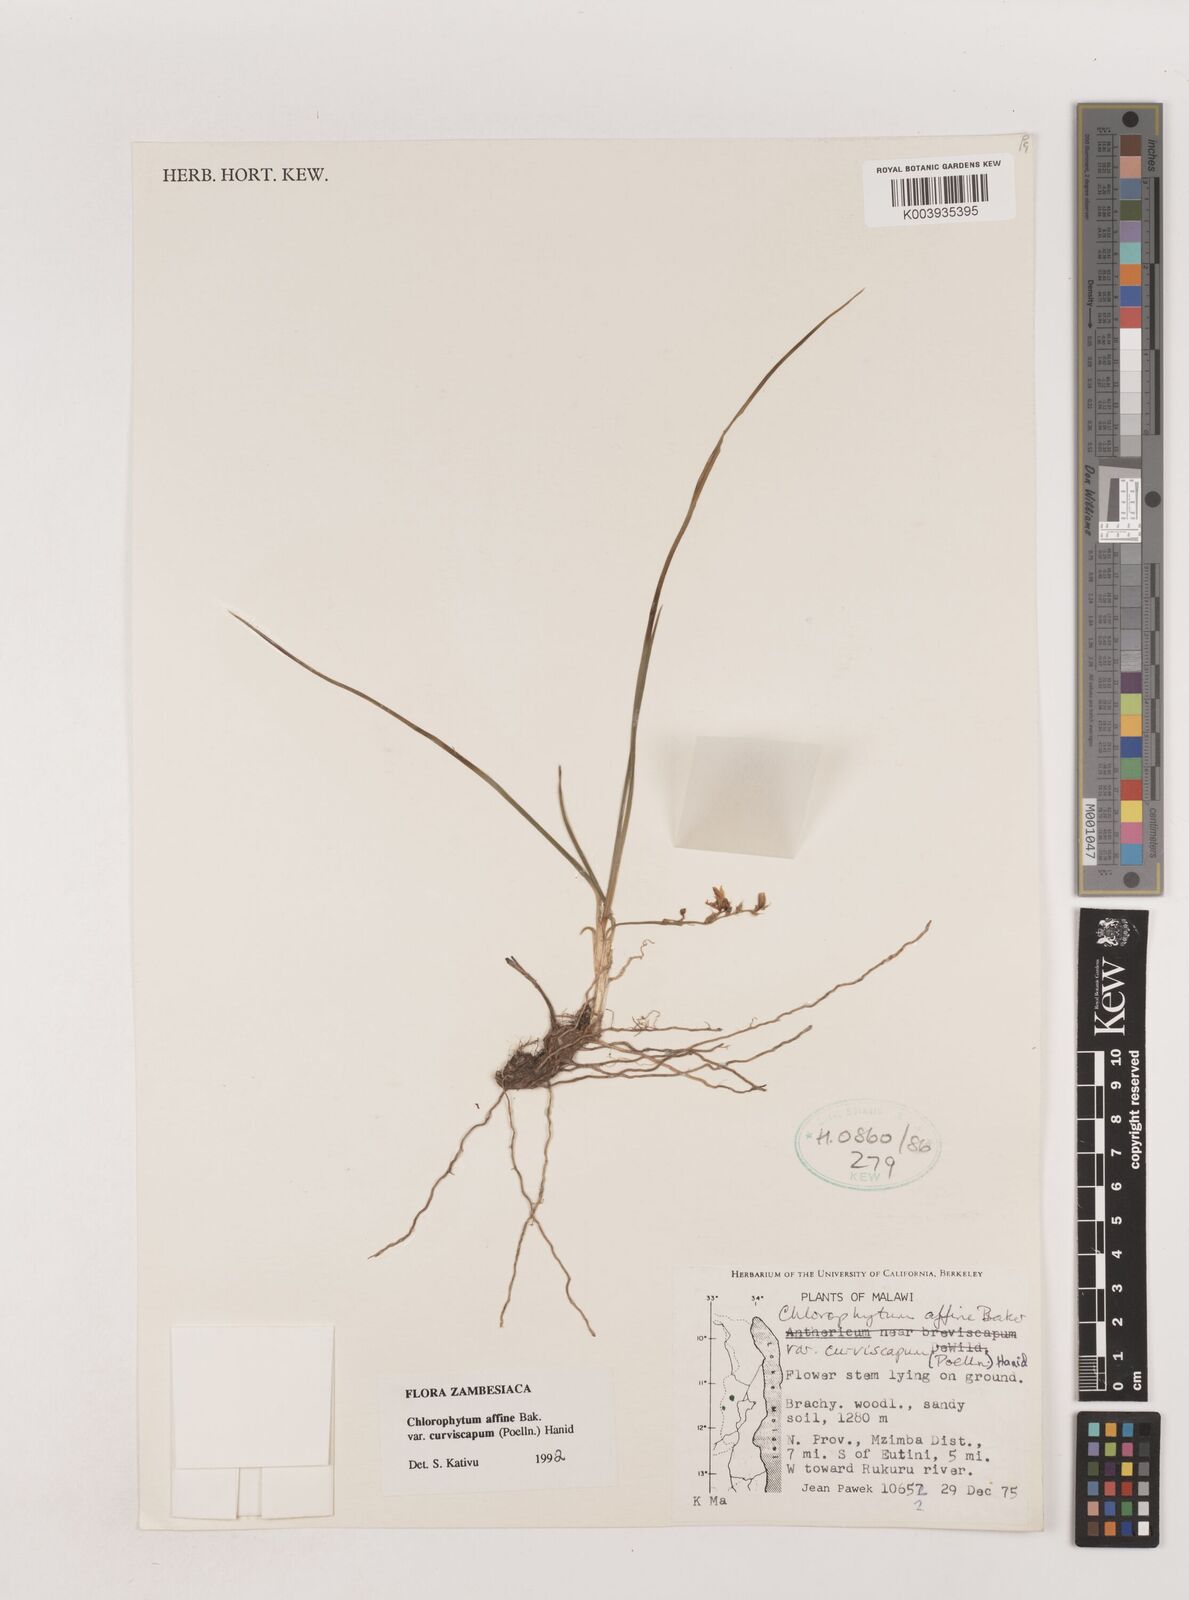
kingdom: Plantae
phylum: Tracheophyta
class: Liliopsida
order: Asparagales
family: Asparagaceae
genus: Chlorophytum
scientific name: Chlorophytum tordense
